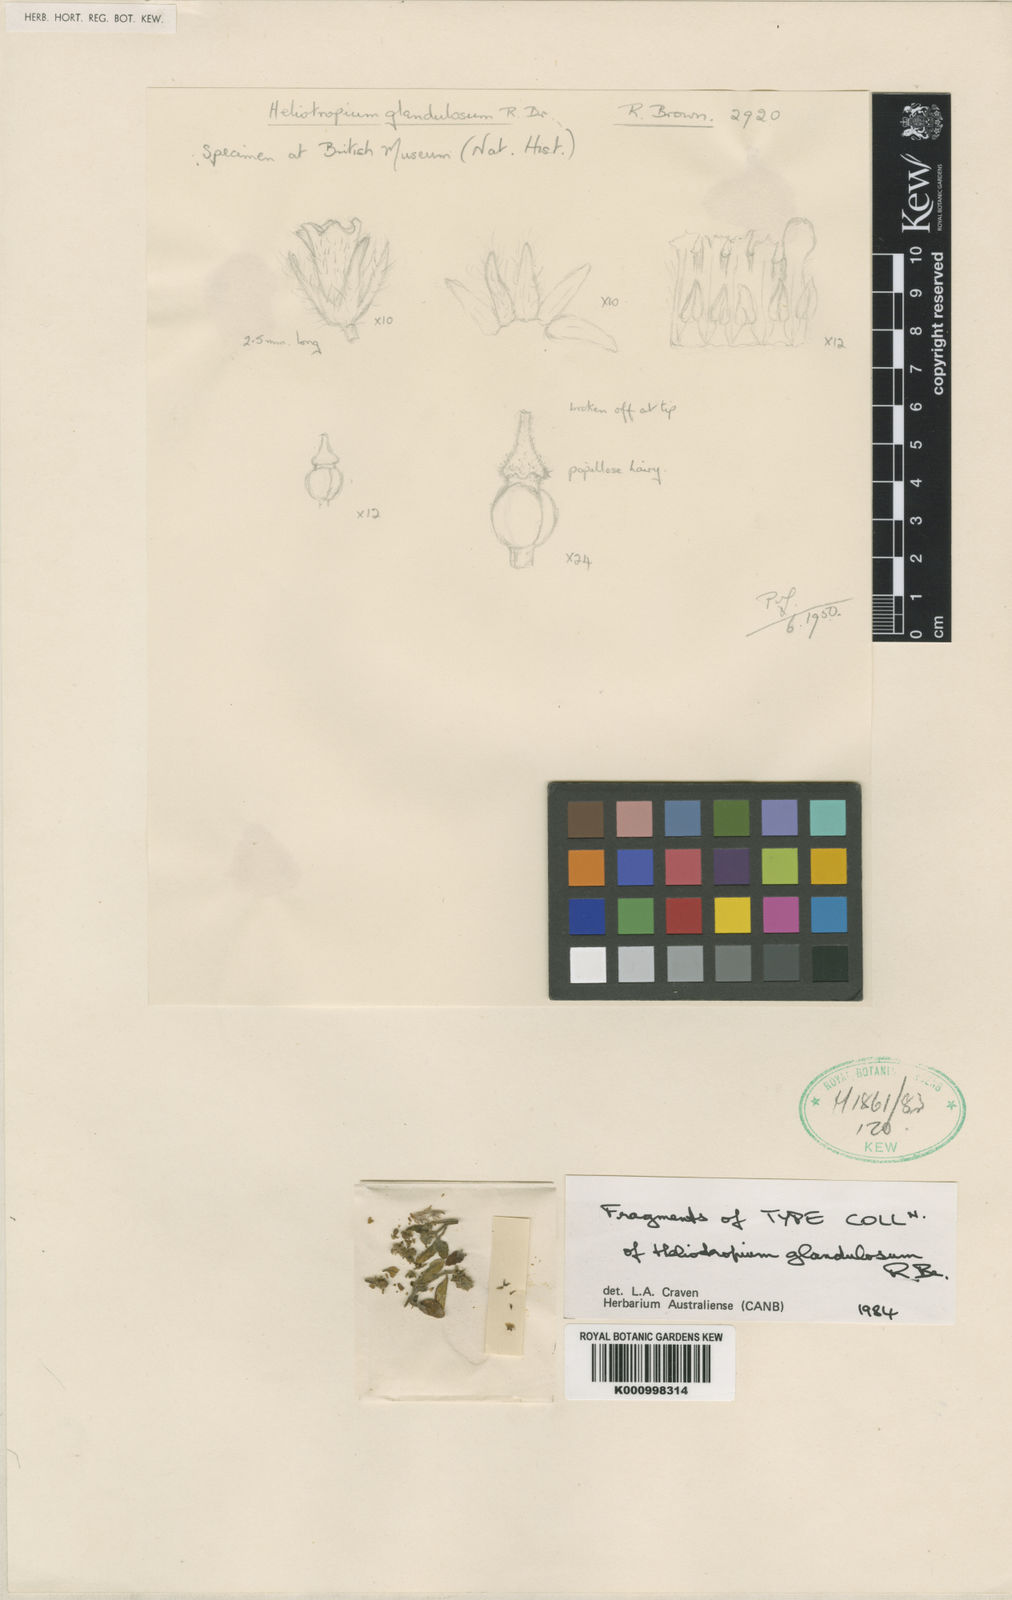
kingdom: Plantae
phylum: Tracheophyta
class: Magnoliopsida
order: Boraginales
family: Heliotropiaceae
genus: Heliotropium
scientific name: Heliotropium europaeum
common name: European heliotrope
